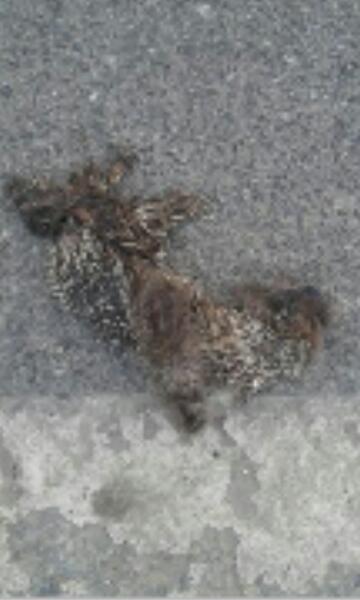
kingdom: Animalia
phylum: Chordata
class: Mammalia
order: Erinaceomorpha
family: Erinaceidae
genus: Erinaceus
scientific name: Erinaceus
